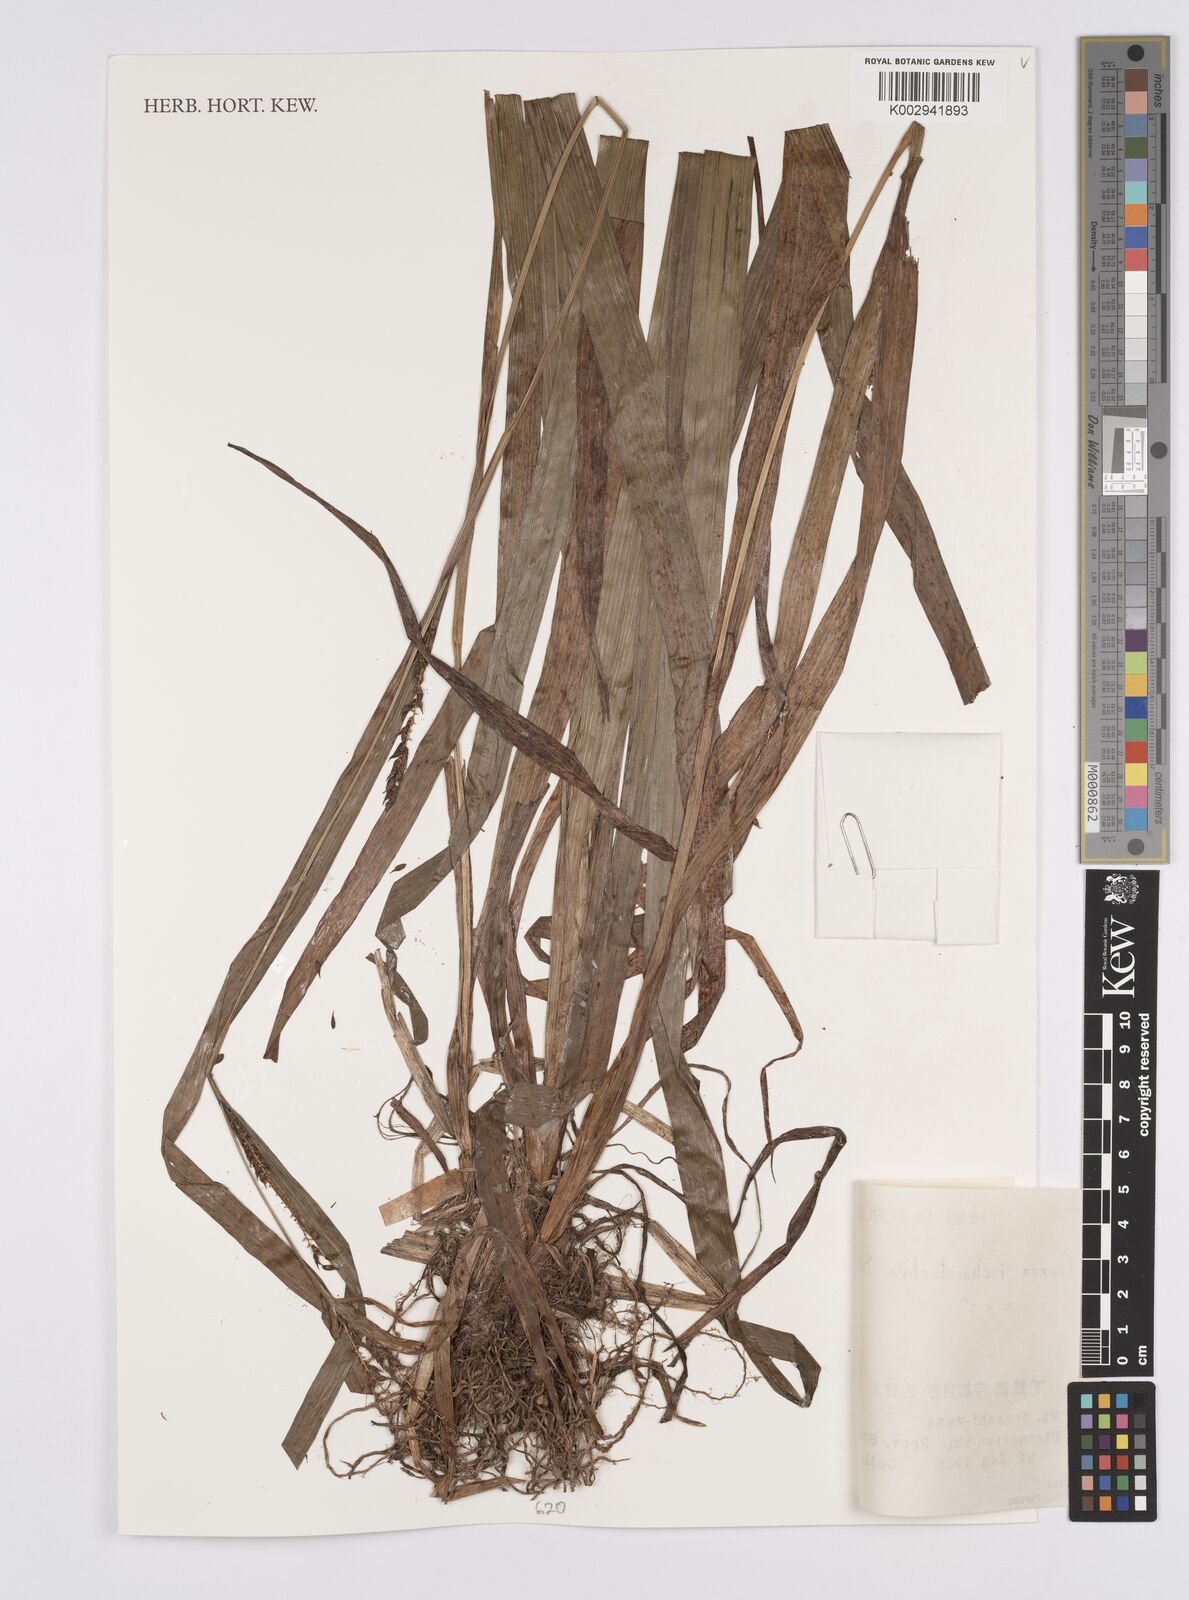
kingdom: Plantae
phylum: Tracheophyta
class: Liliopsida
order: Poales
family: Cyperaceae
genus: Carex
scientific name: Carex ischnostachya
